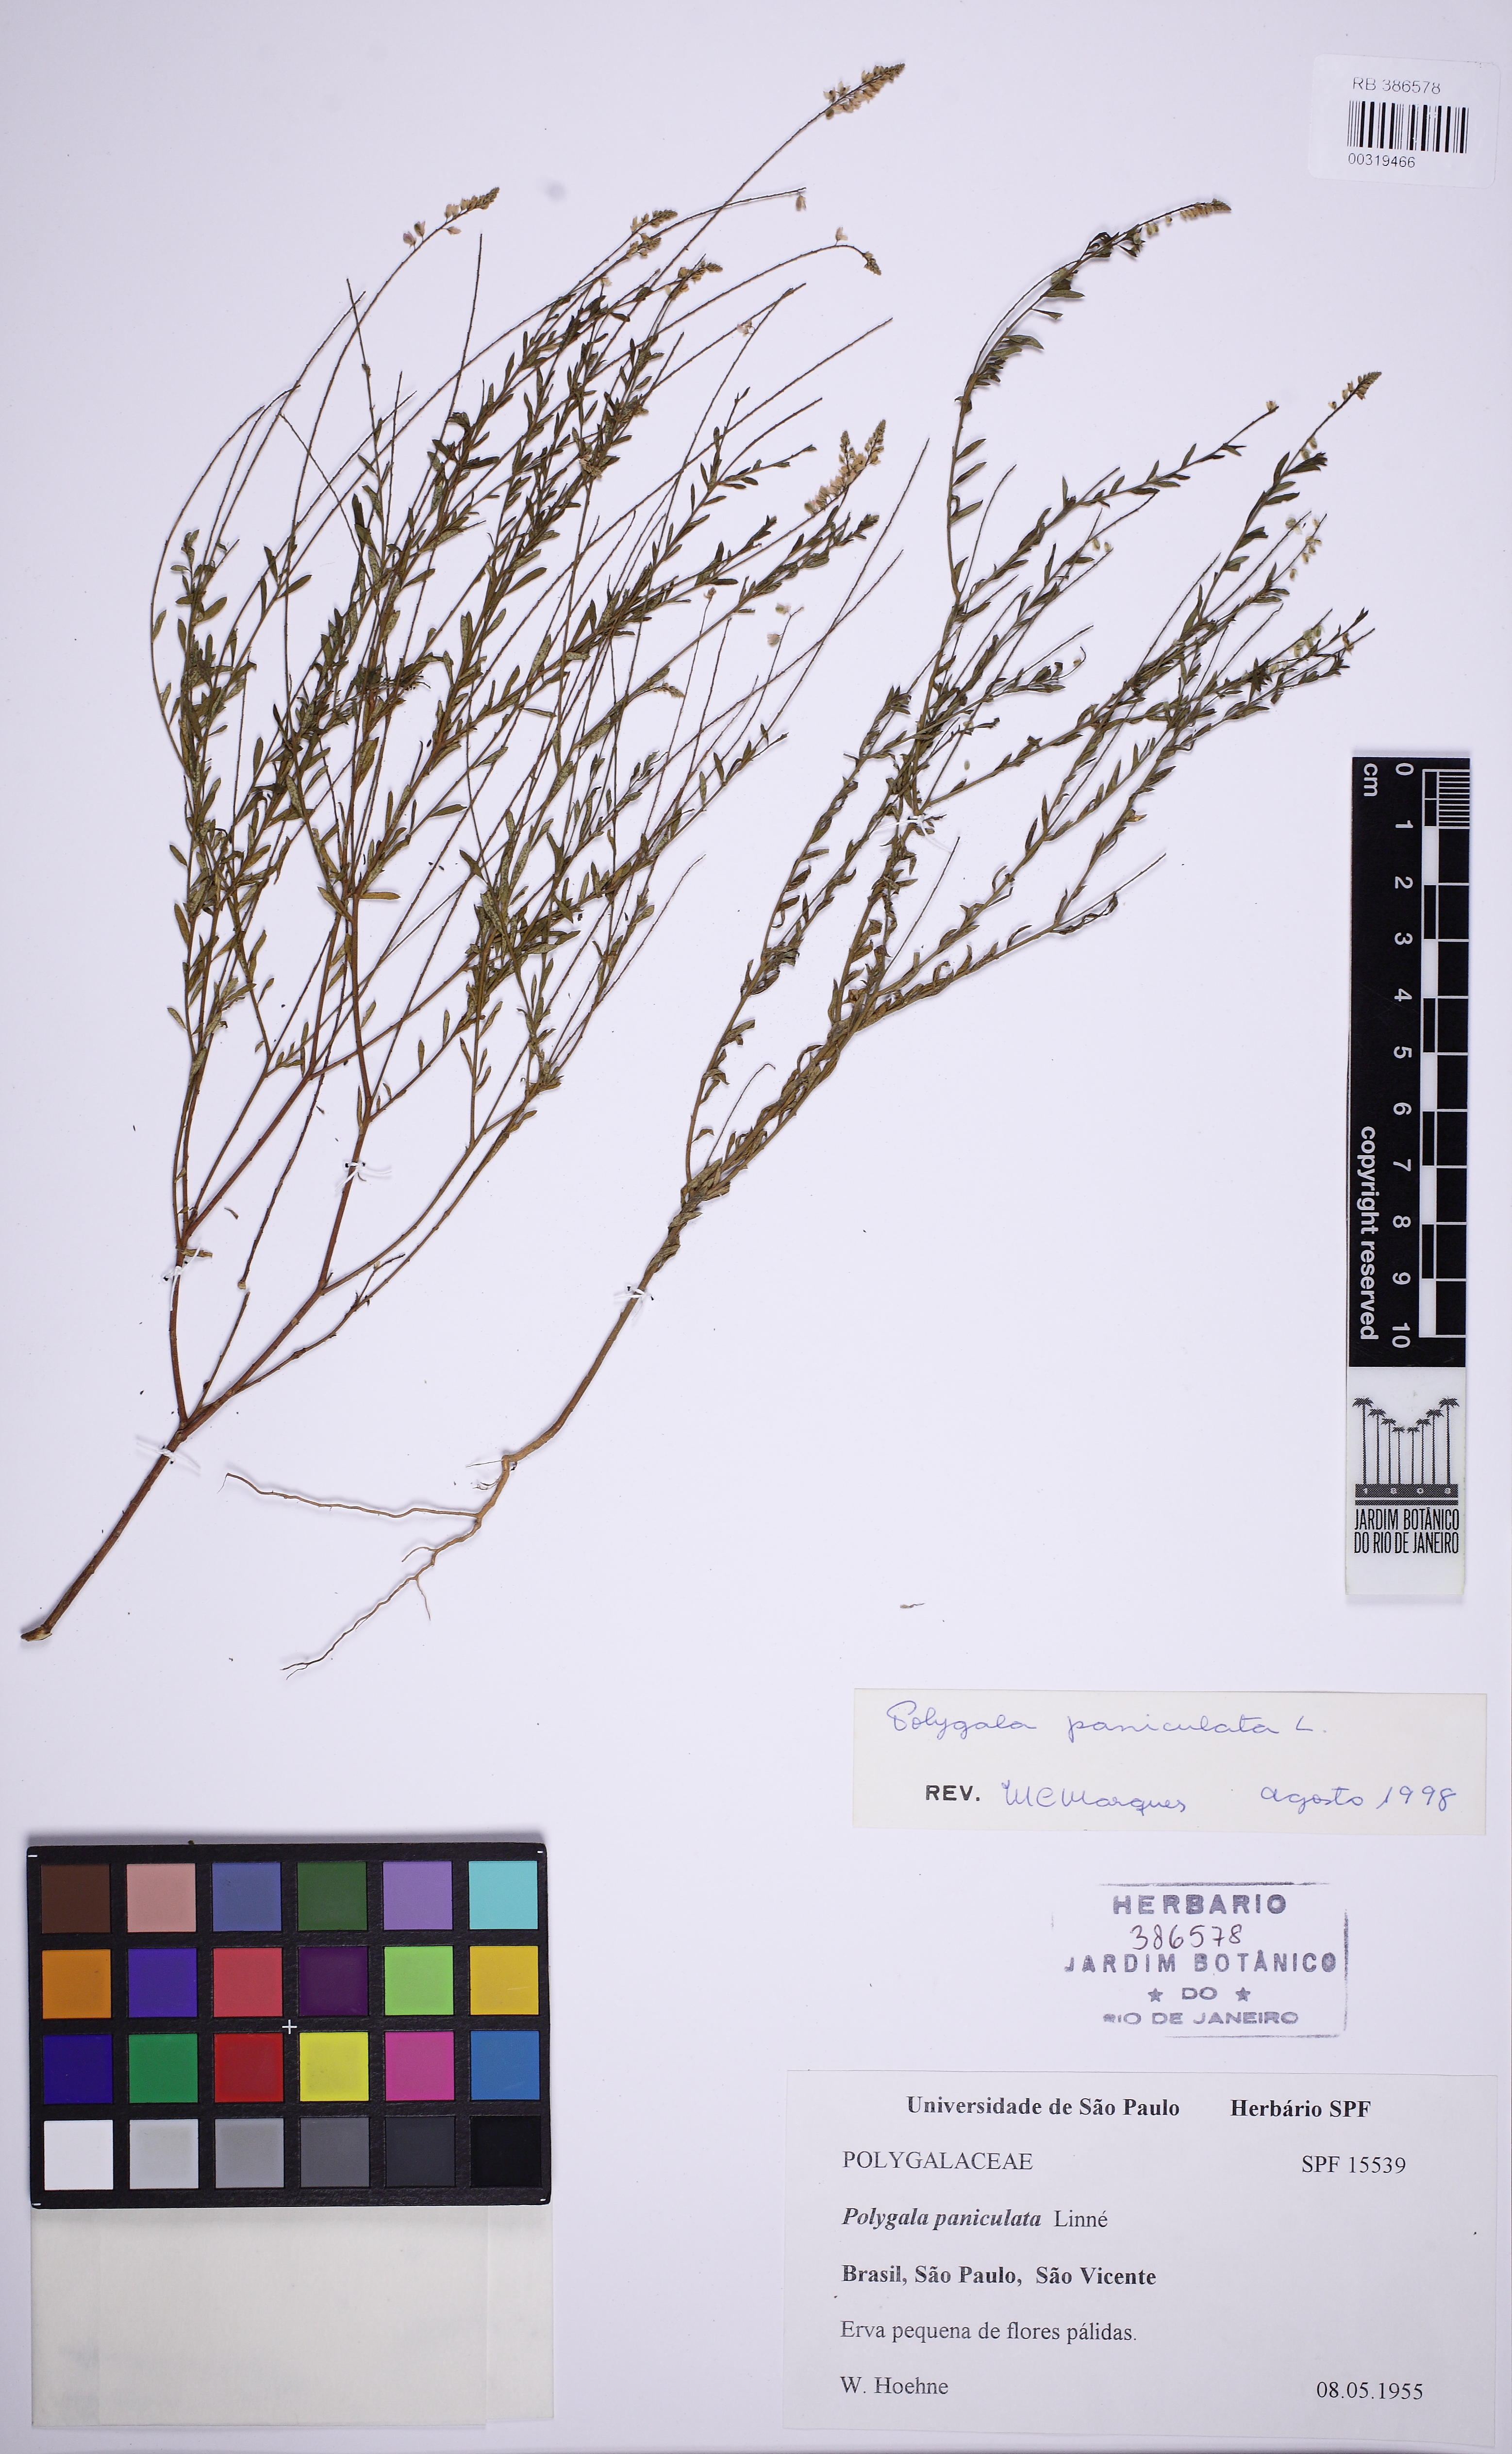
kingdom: Plantae
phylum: Tracheophyta
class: Magnoliopsida
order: Fabales
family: Polygalaceae
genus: Polygala
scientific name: Polygala paniculata
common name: Orosne
